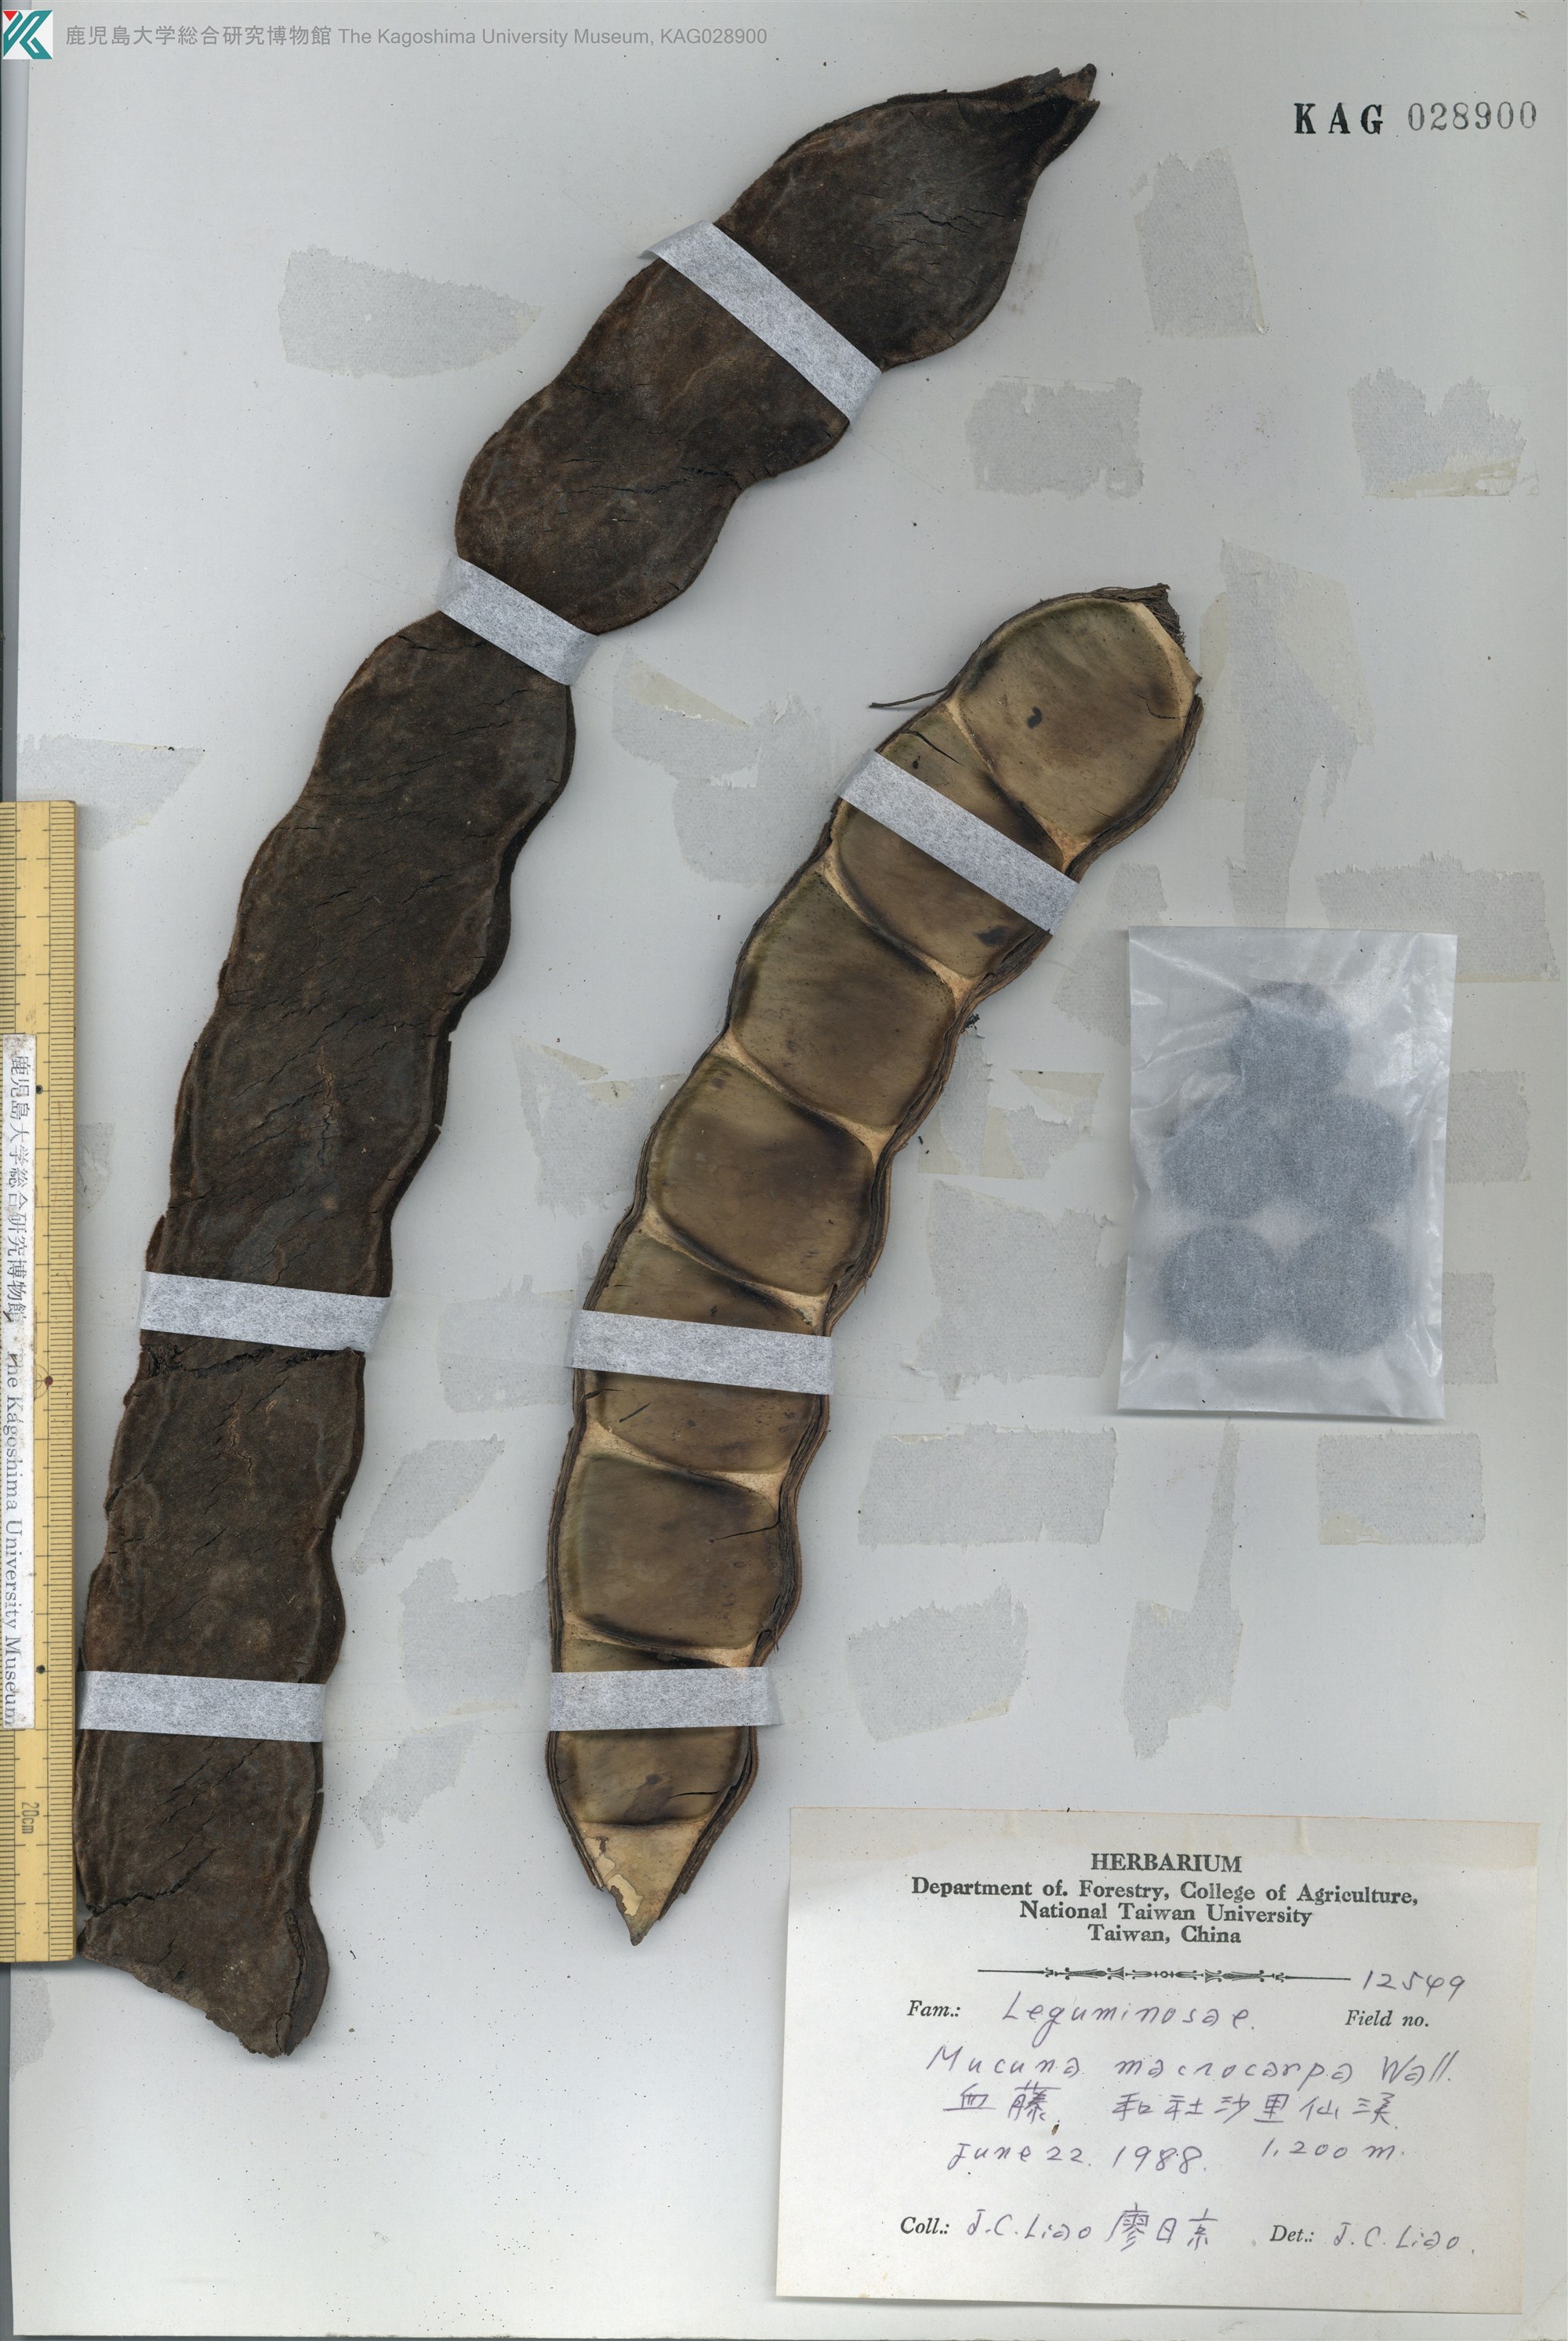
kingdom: Plantae
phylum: Tracheophyta
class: Magnoliopsida
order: Fabales
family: Fabaceae
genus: Mucuna
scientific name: Mucuna macrocarpa
